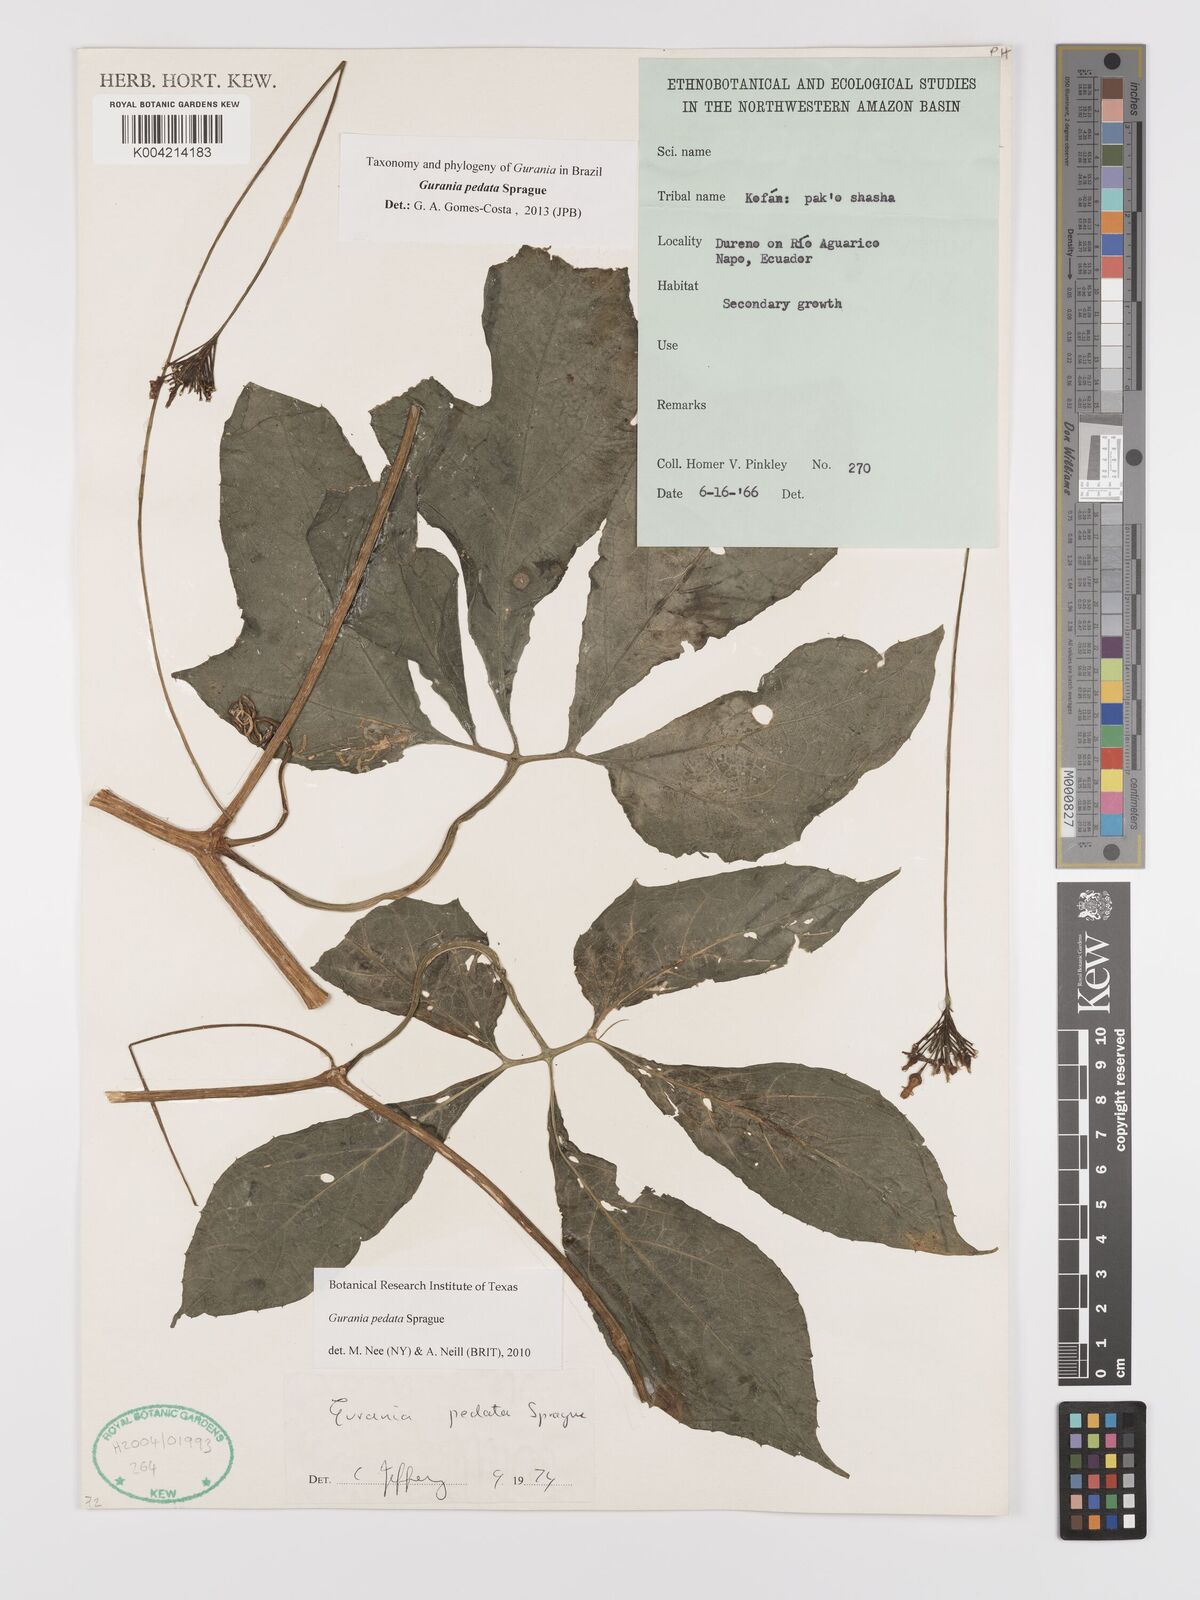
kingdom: Plantae
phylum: Tracheophyta
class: Magnoliopsida
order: Cucurbitales
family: Cucurbitaceae
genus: Gurania
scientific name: Gurania pedata
